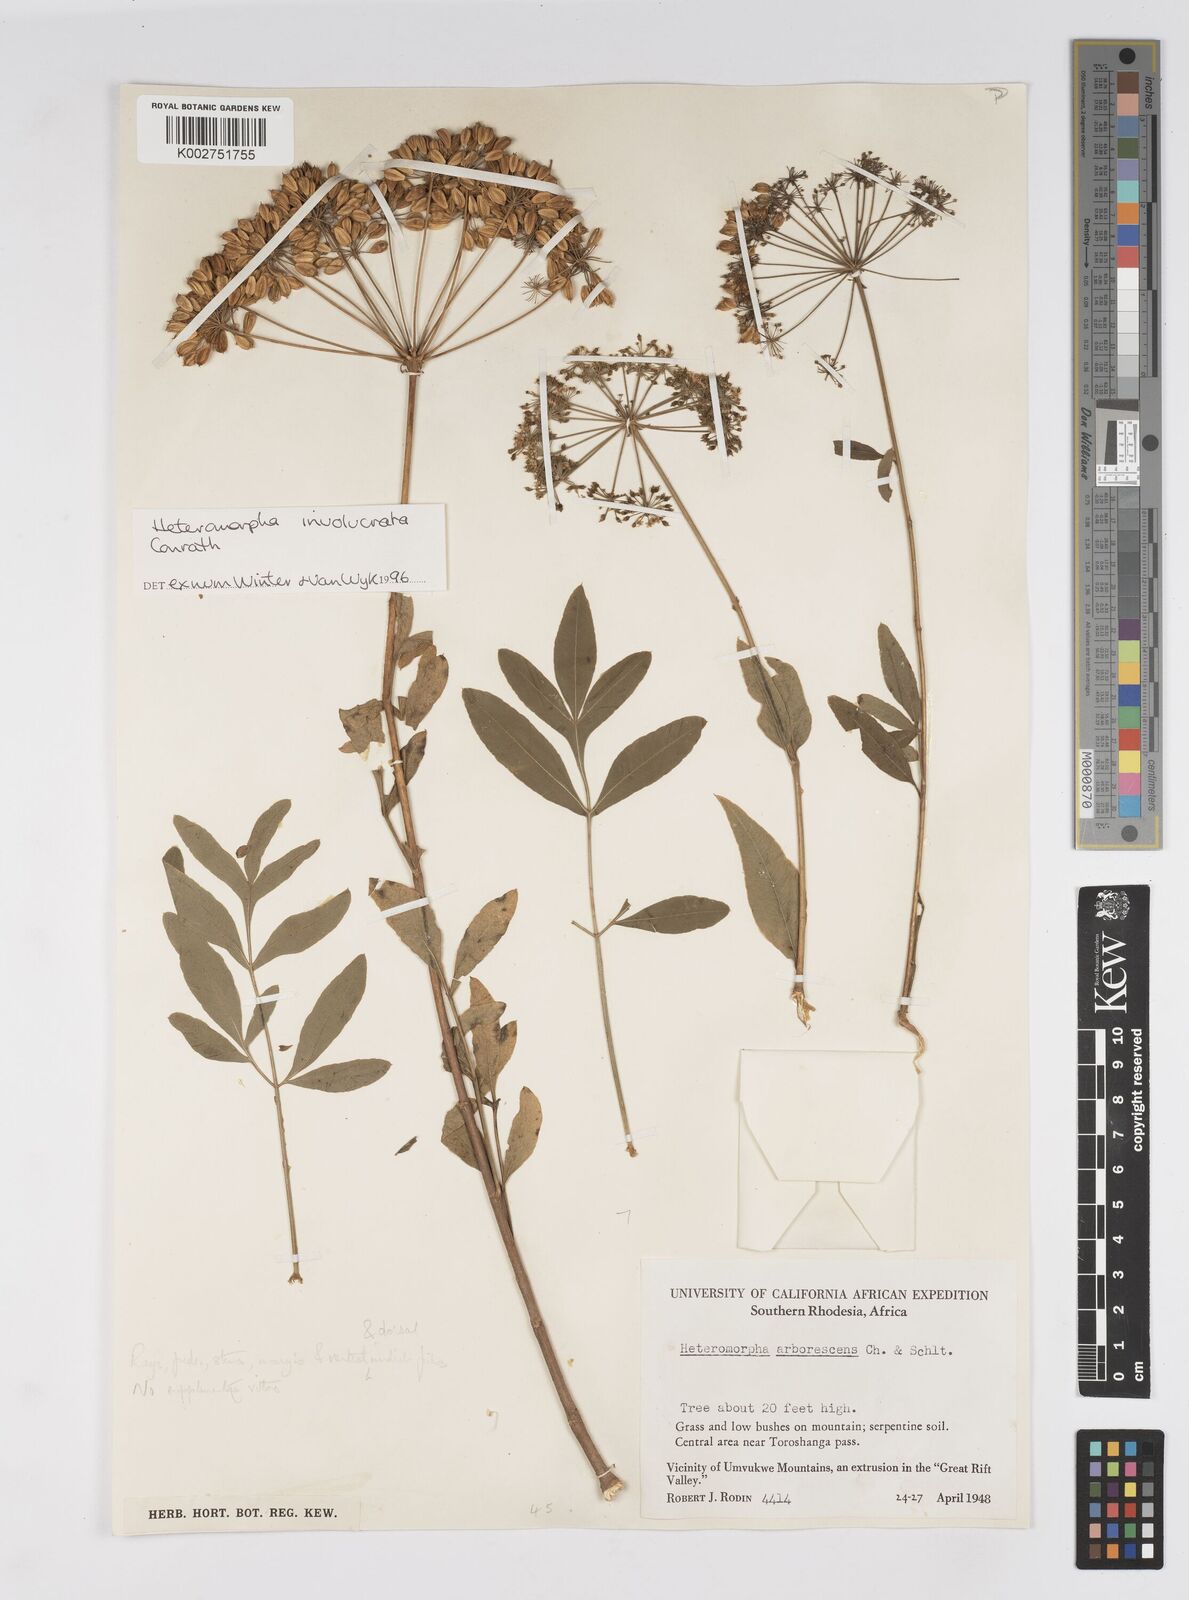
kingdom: Plantae
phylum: Tracheophyta
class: Magnoliopsida
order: Apiales
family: Apiaceae
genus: Heteromorpha
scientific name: Heteromorpha involucrata
